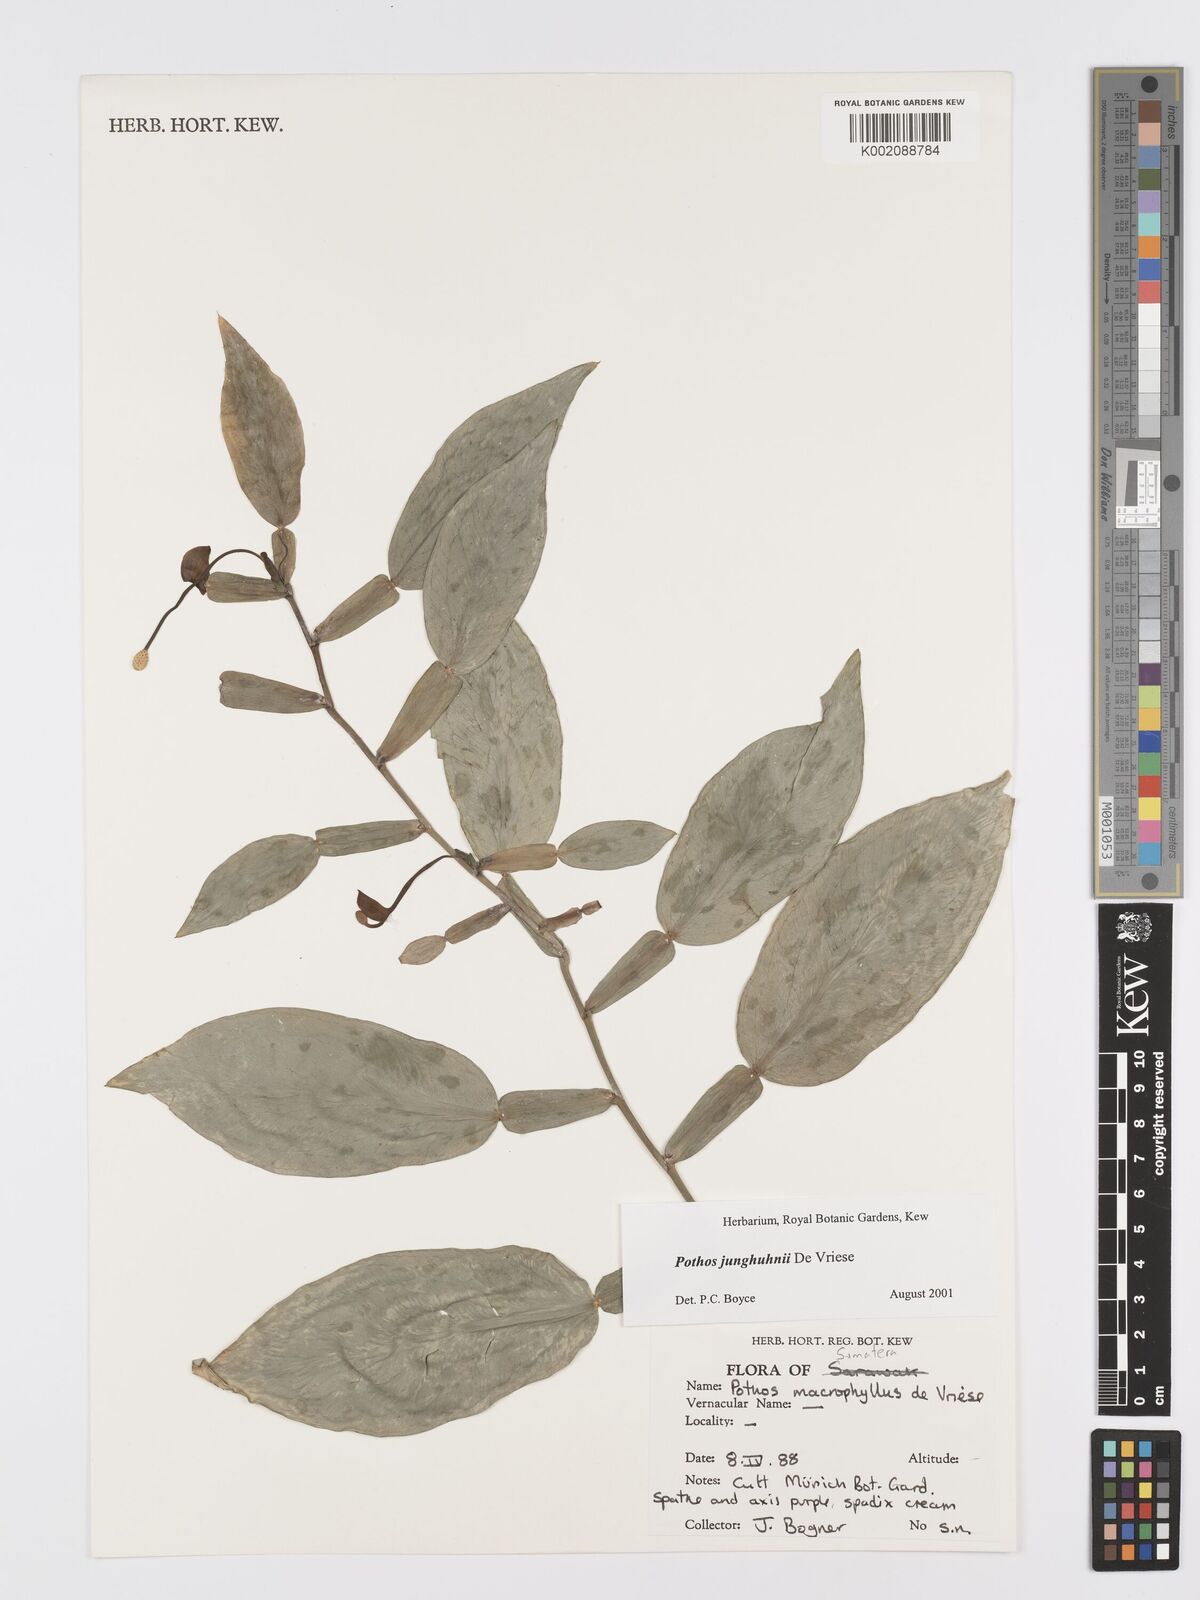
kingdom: Plantae
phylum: Tracheophyta
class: Liliopsida
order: Alismatales
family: Araceae
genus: Pothos
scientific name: Pothos junghuhnii
